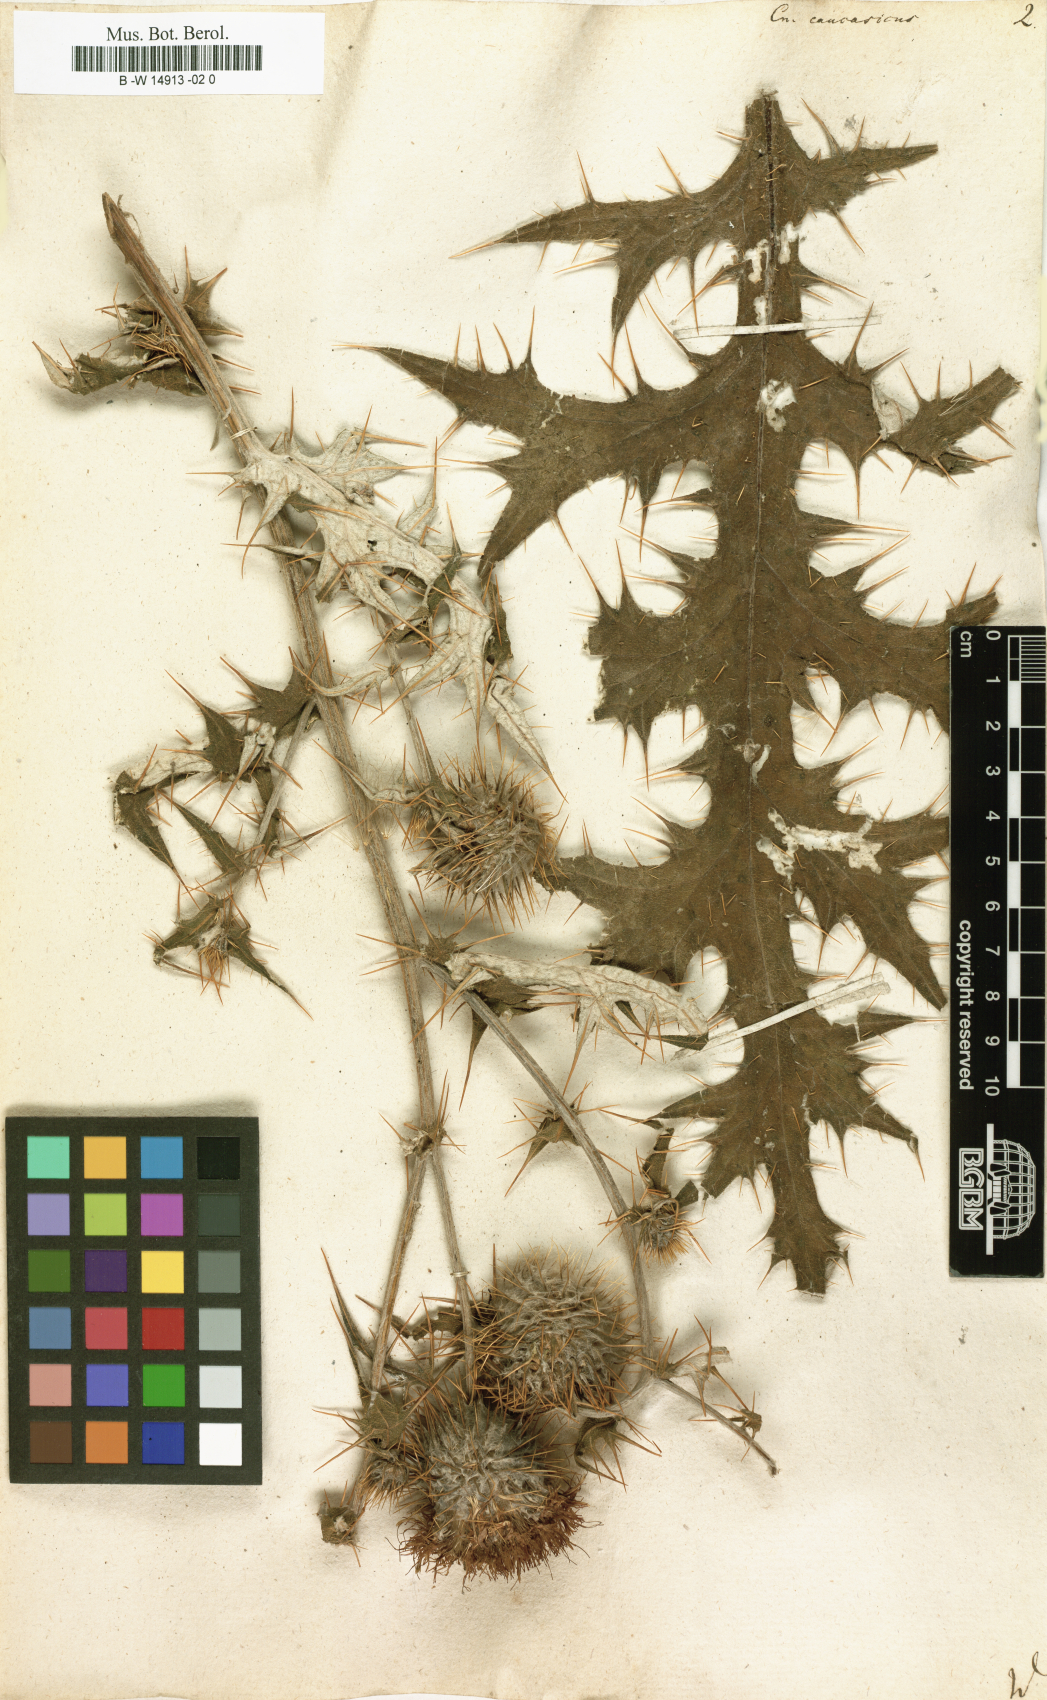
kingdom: Plantae
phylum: Tracheophyta
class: Magnoliopsida
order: Asterales
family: Asteraceae
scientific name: Asteraceae
